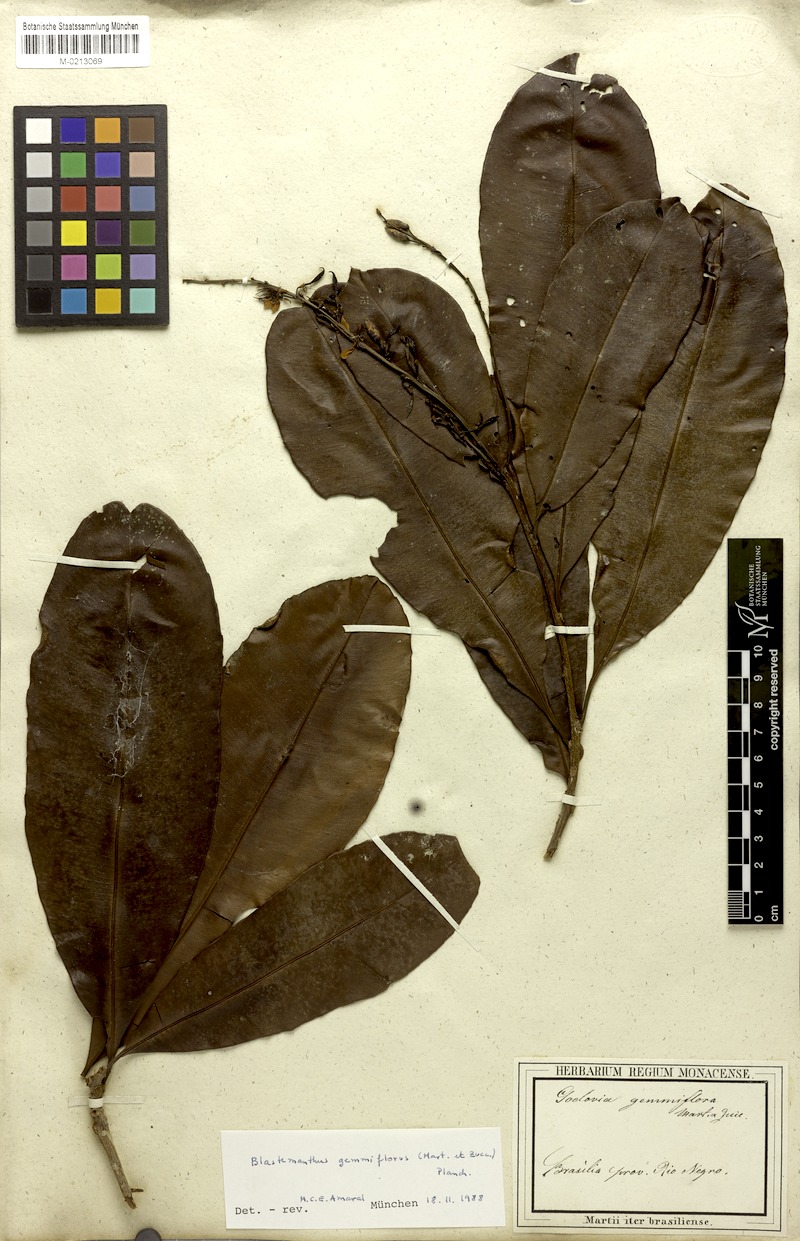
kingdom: Plantae
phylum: Tracheophyta
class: Magnoliopsida
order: Malpighiales
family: Ochnaceae
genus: Blastemanthus
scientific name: Blastemanthus gemmiflorus
